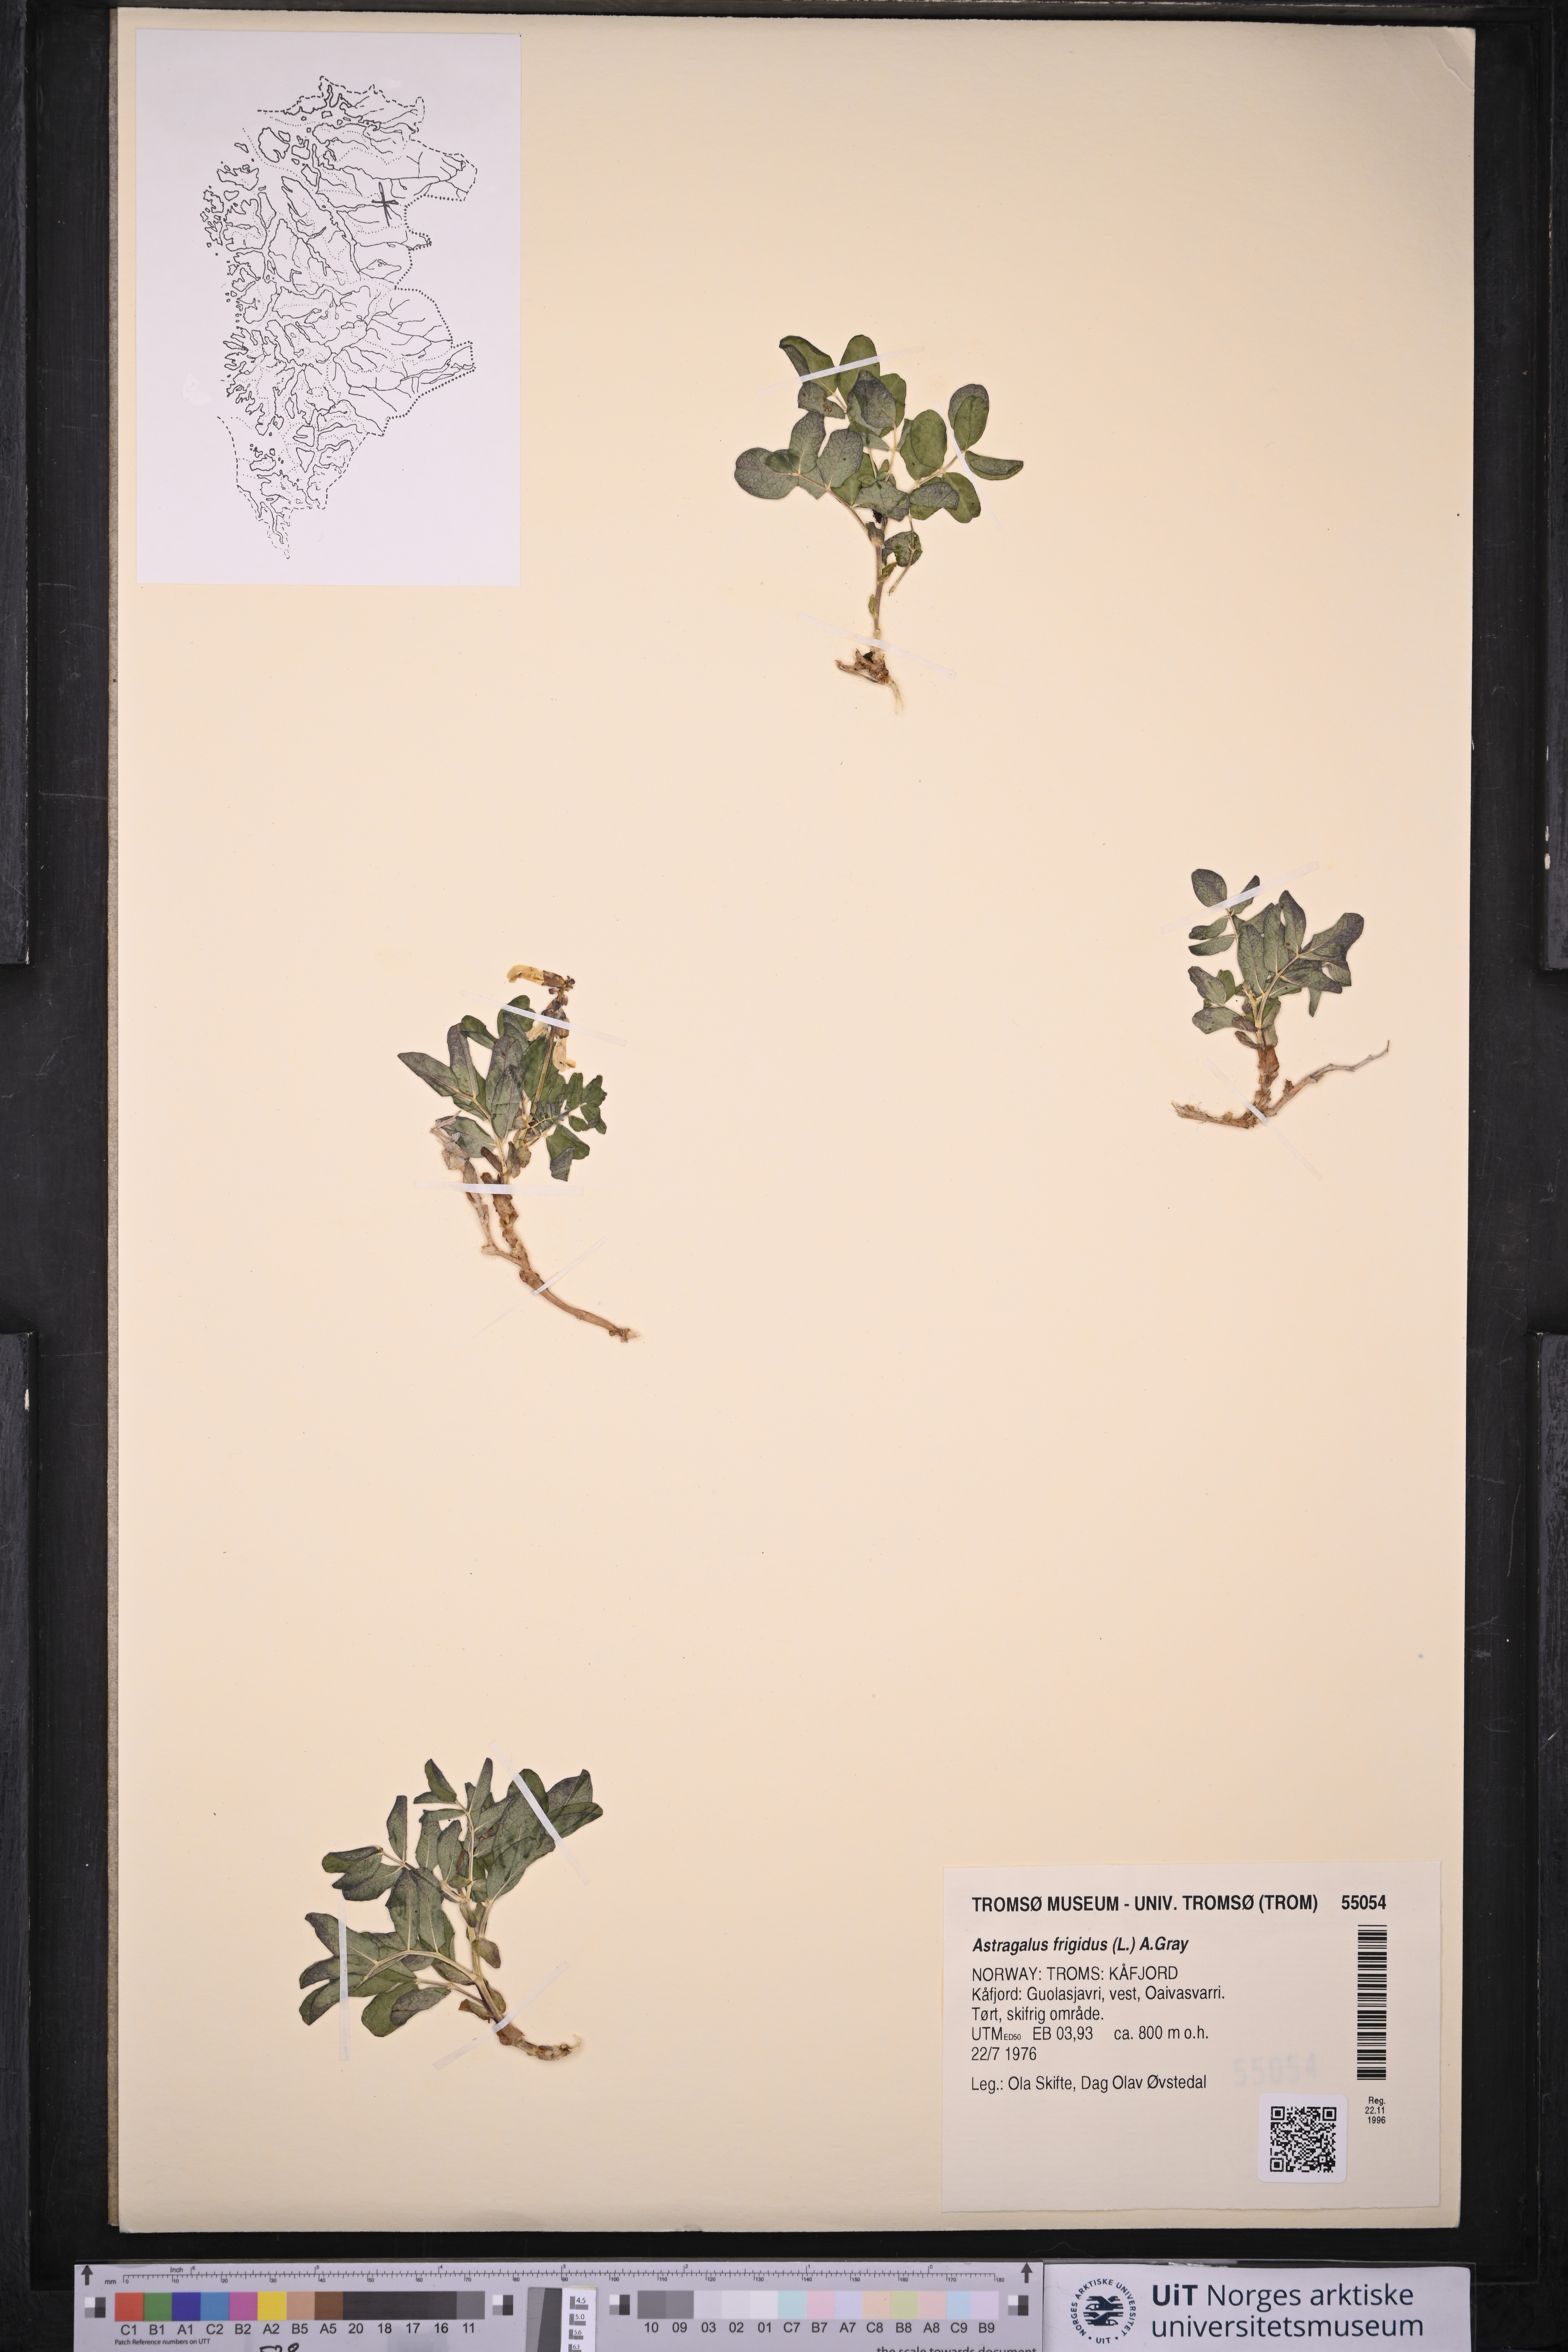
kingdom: Plantae
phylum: Tracheophyta
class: Magnoliopsida
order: Fabales
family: Fabaceae
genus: Astragalus
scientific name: Astragalus frigidus
